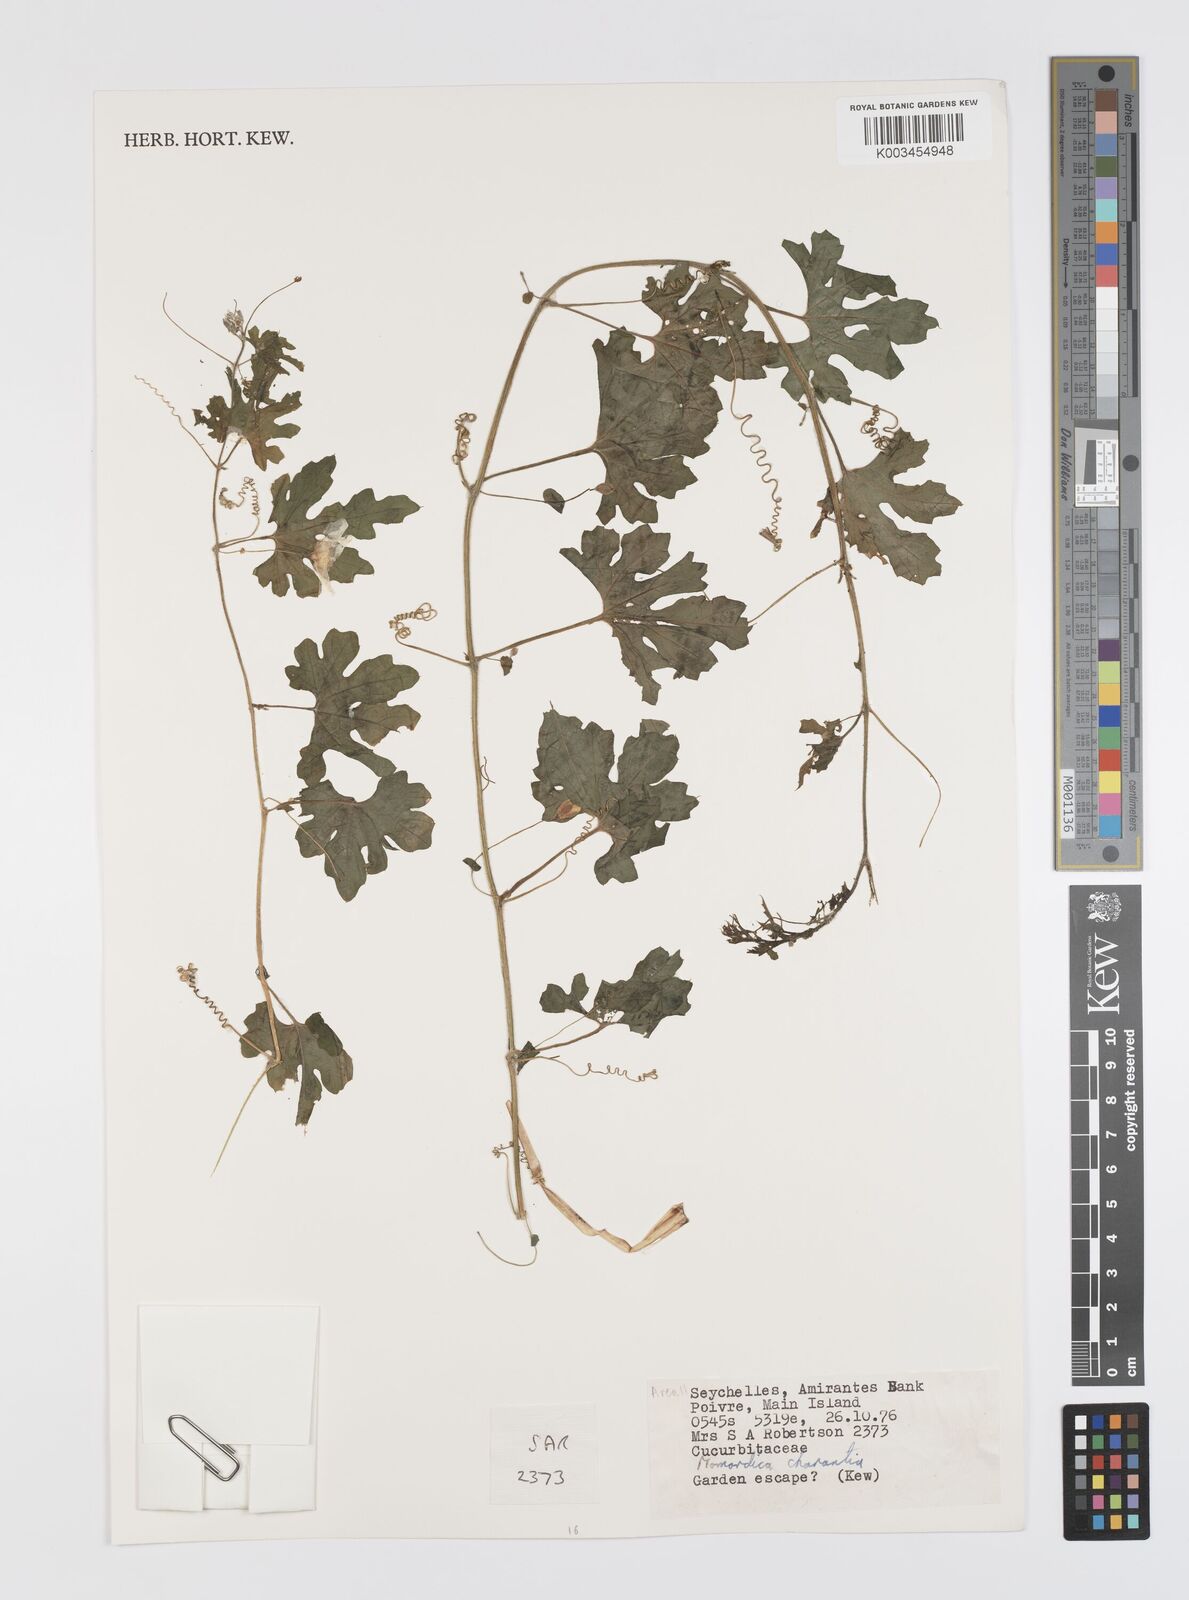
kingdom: Plantae
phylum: Tracheophyta
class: Magnoliopsida
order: Cucurbitales
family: Cucurbitaceae
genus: Momordica
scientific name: Momordica charantia
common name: Balsampear
